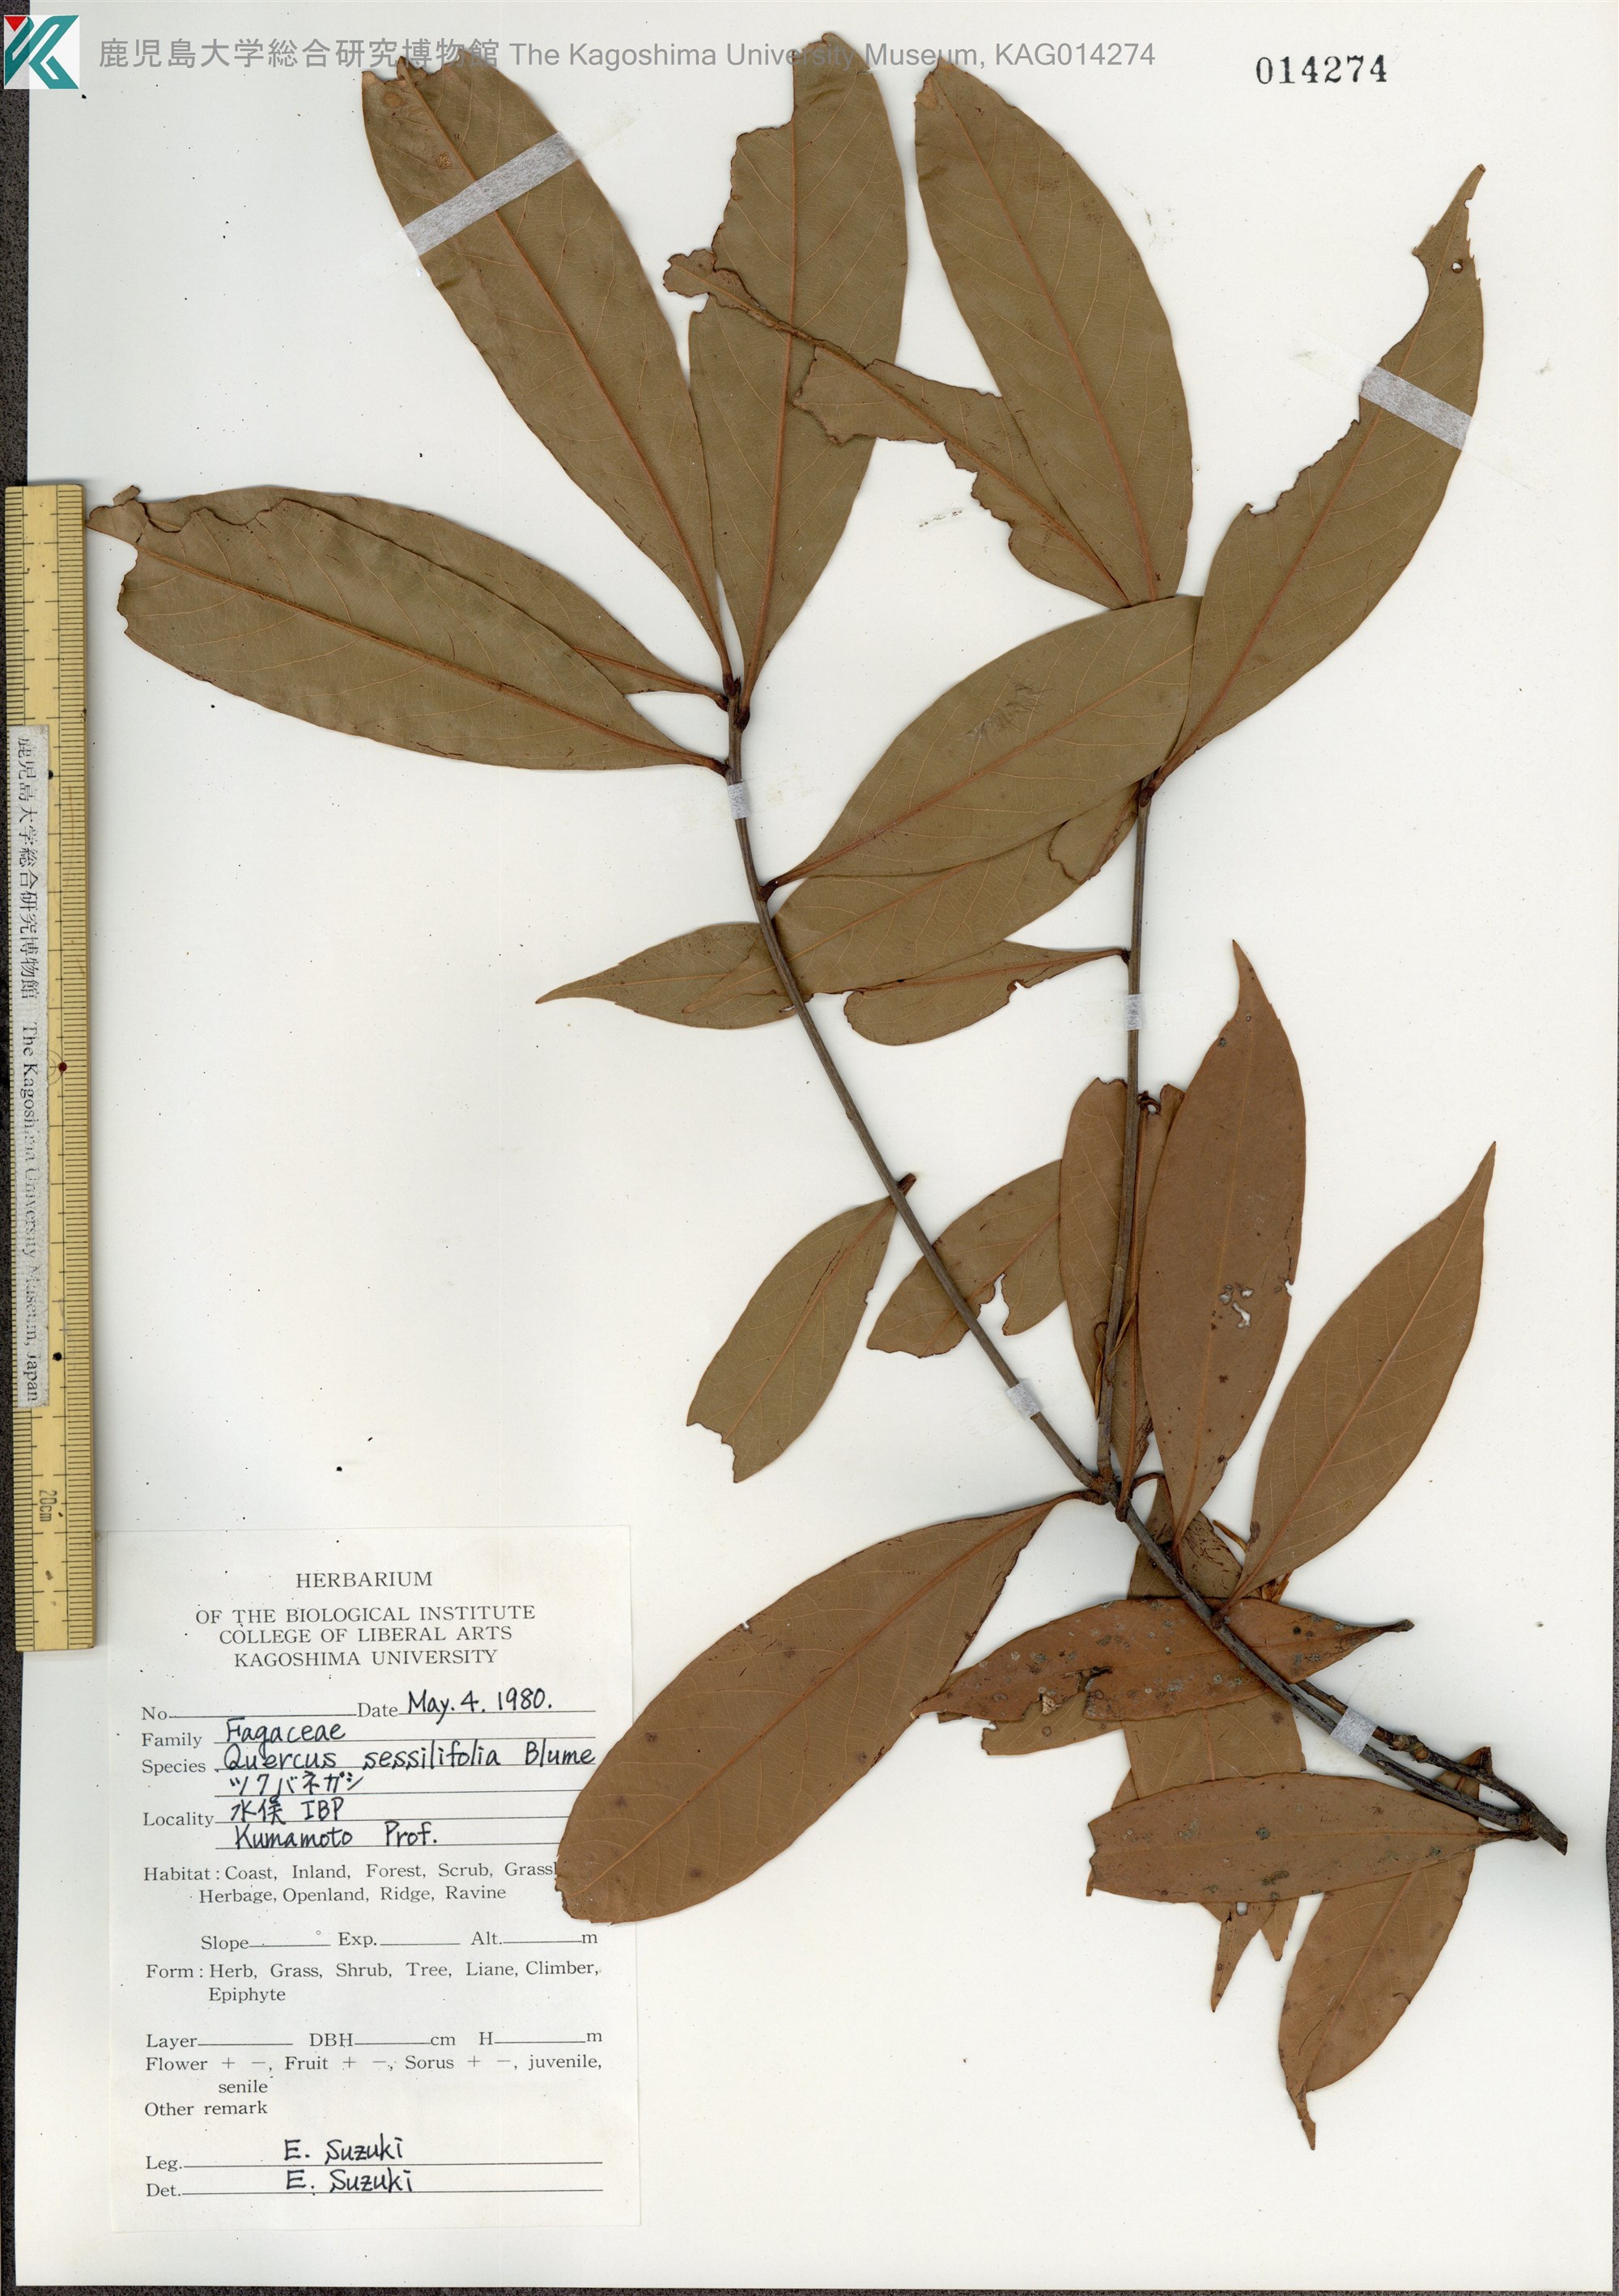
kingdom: Plantae
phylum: Tracheophyta
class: Magnoliopsida
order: Fagales
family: Fagaceae
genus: Quercus
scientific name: Quercus sessilifolia
